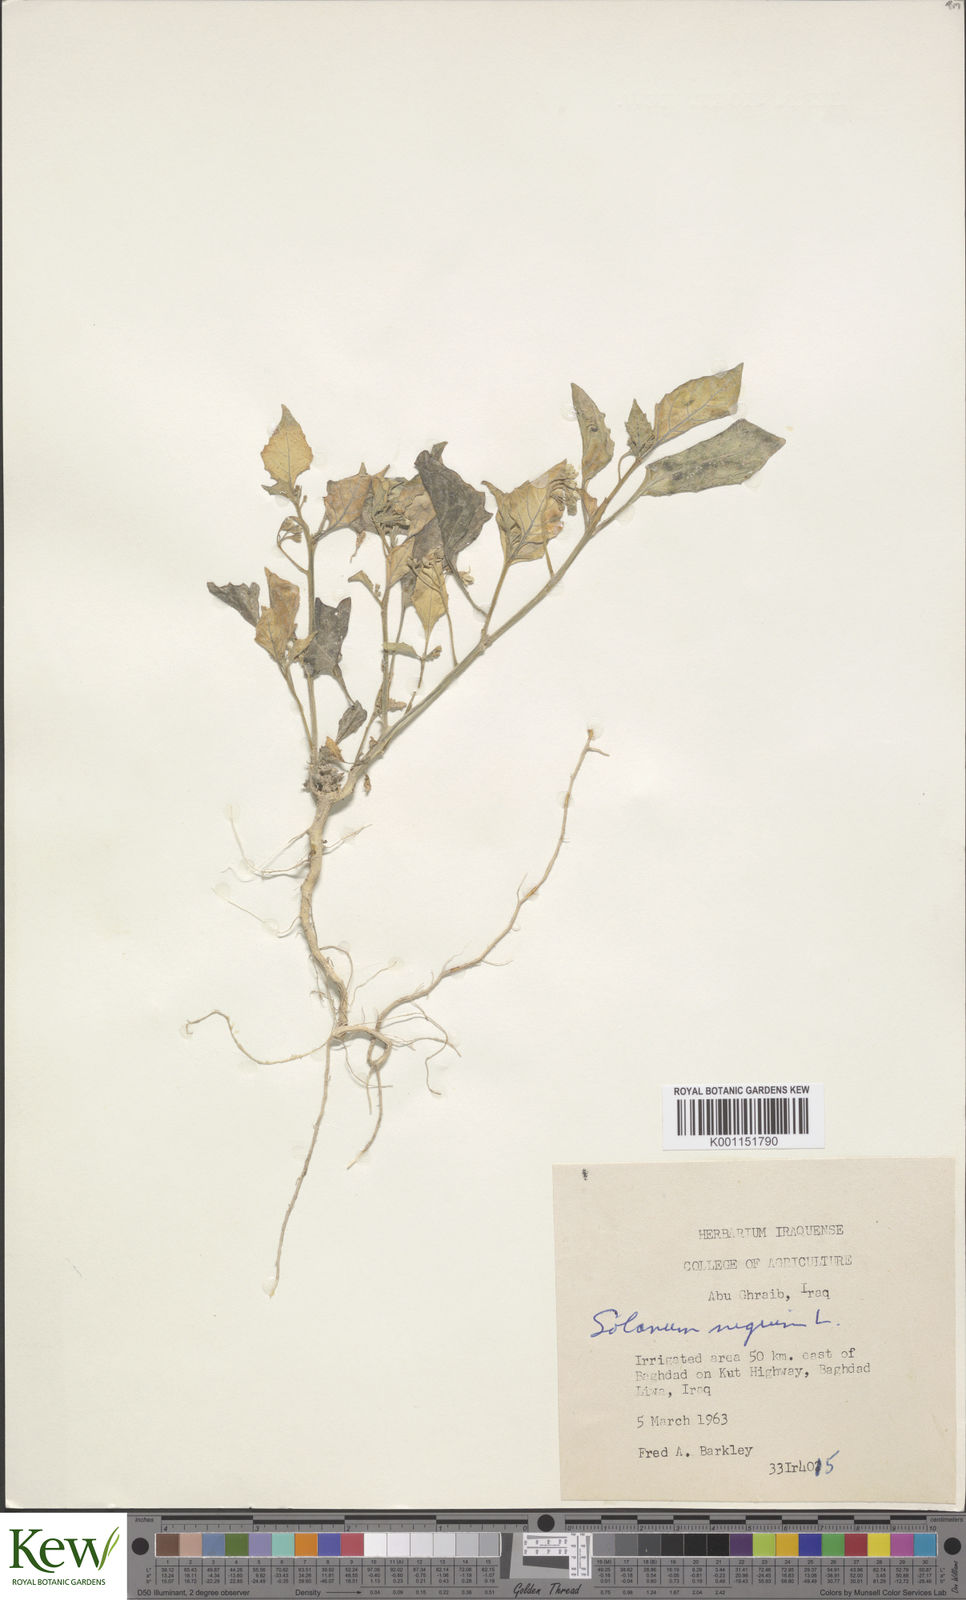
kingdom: Plantae
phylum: Tracheophyta
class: Magnoliopsida
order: Solanales
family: Solanaceae
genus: Solanum
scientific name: Solanum nigrum
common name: Black nightshade
